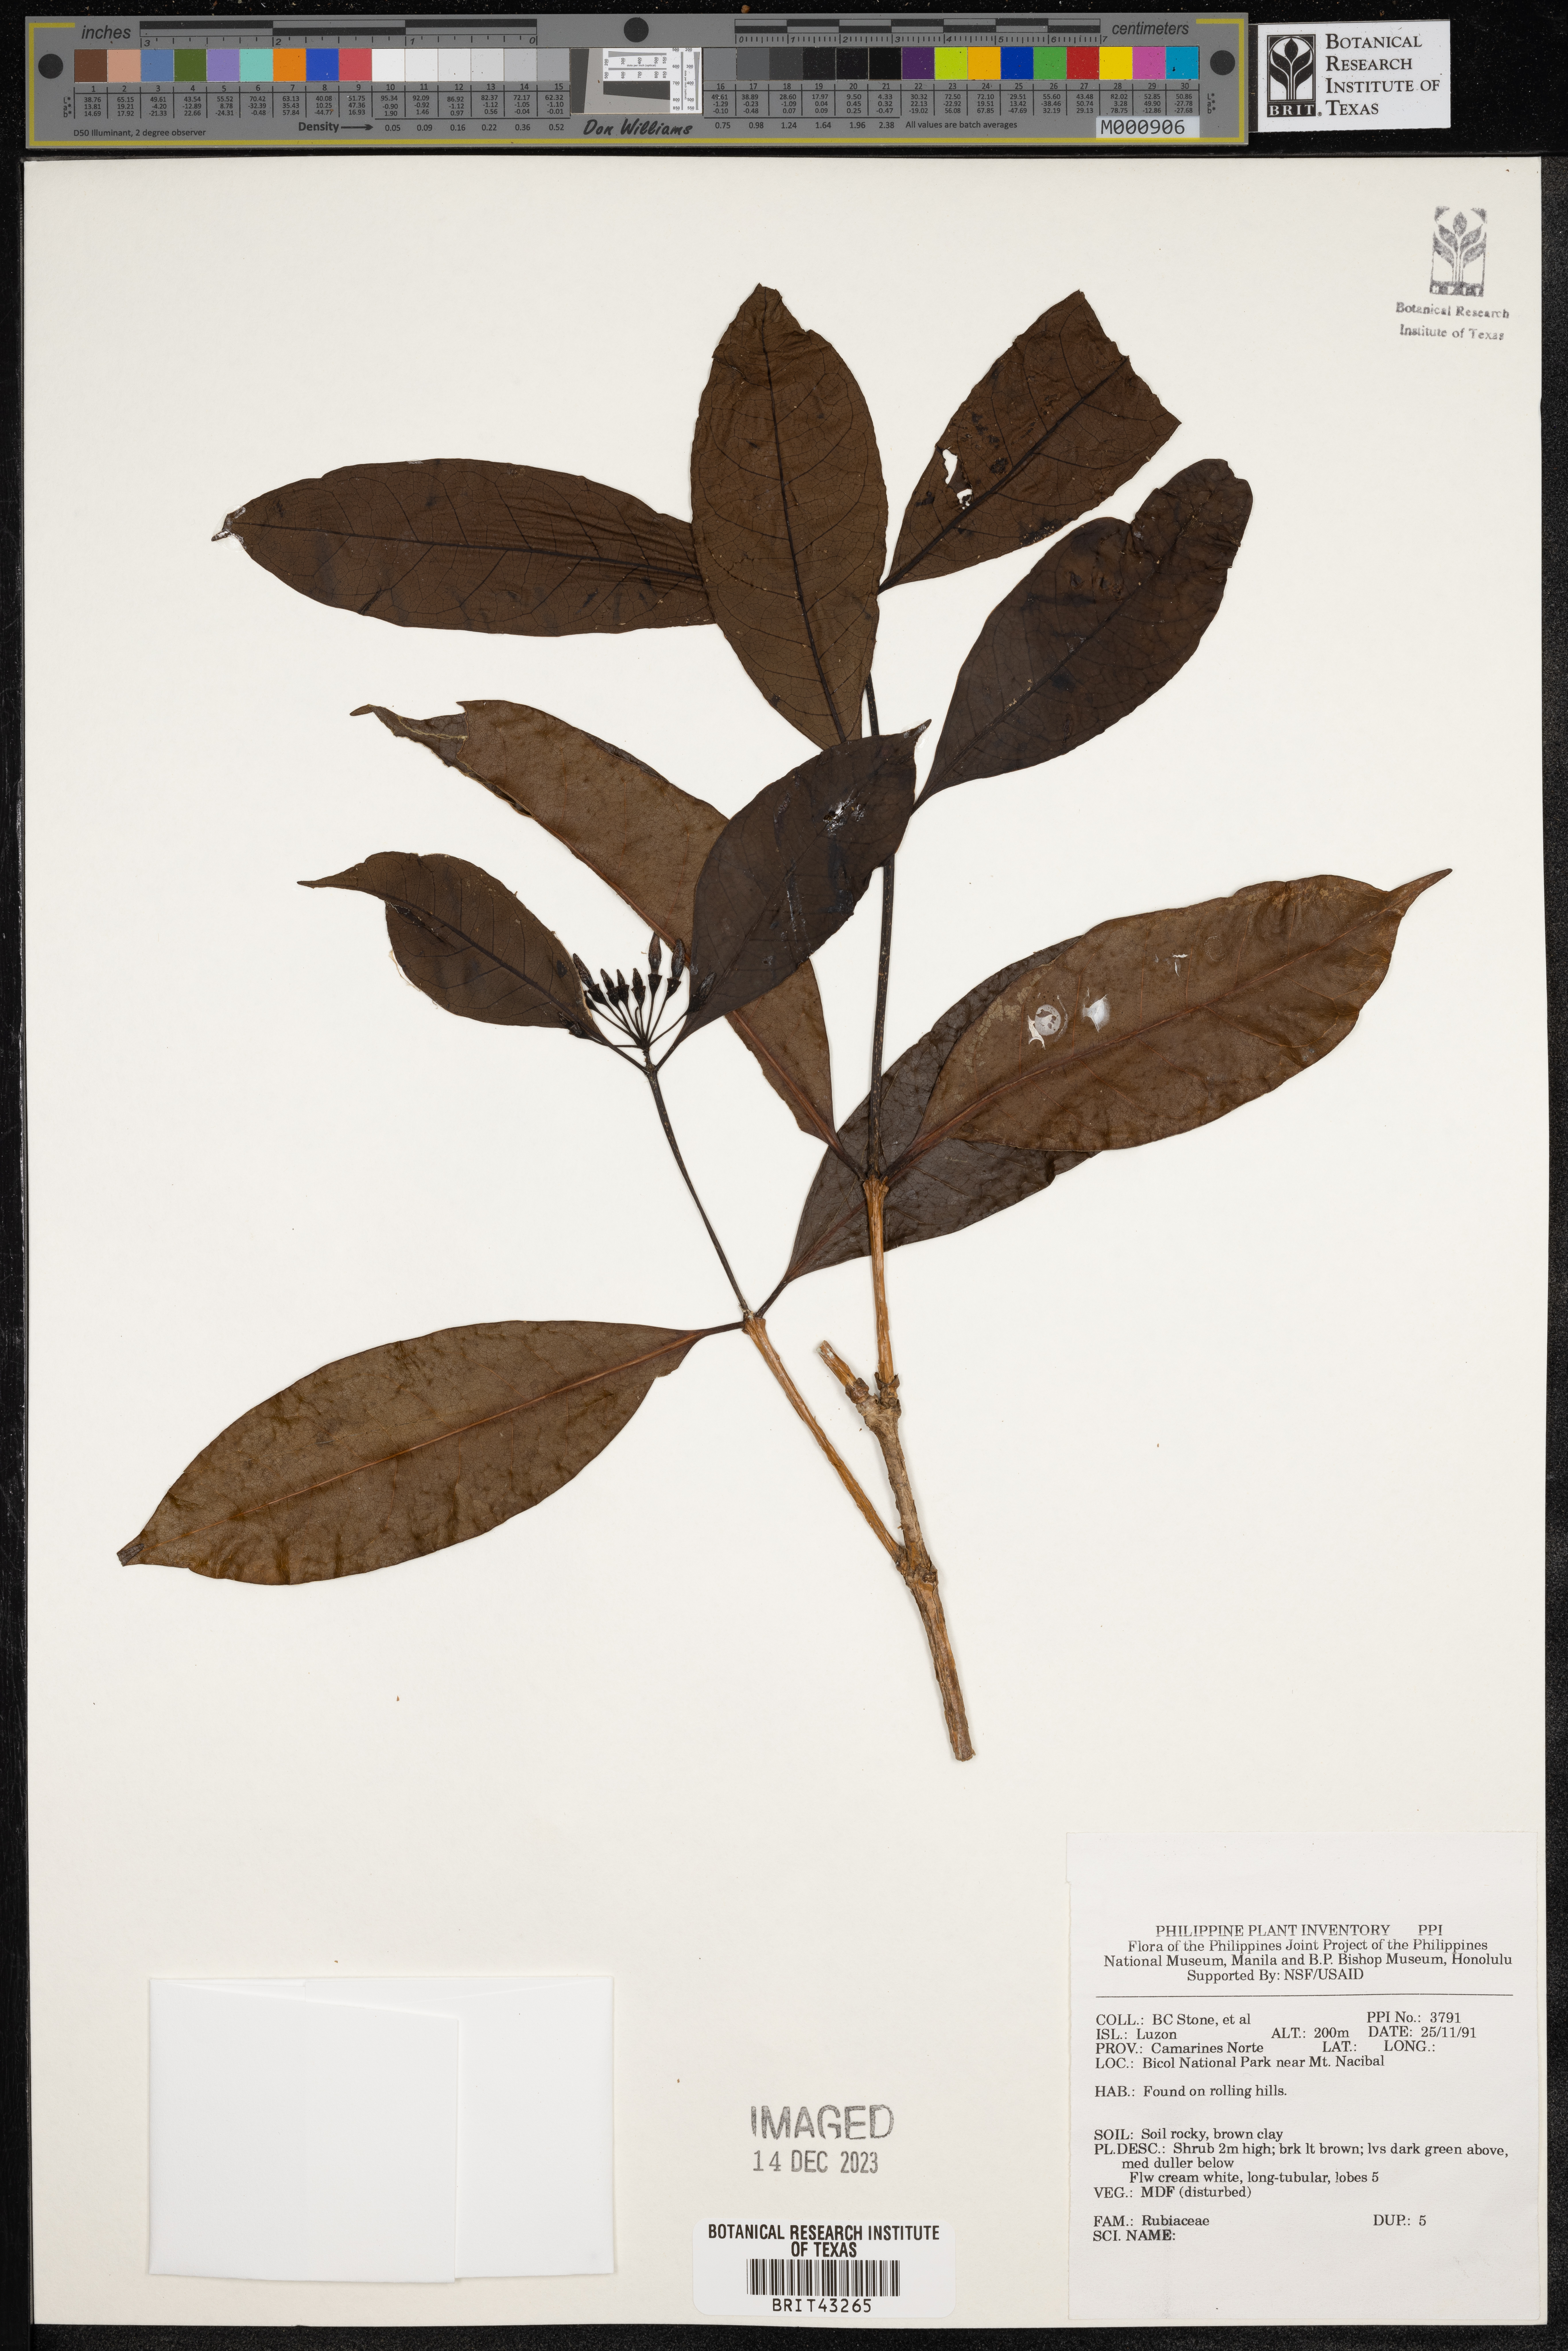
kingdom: Plantae
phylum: Tracheophyta
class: Magnoliopsida
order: Gentianales
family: Rubiaceae
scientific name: Rubiaceae
